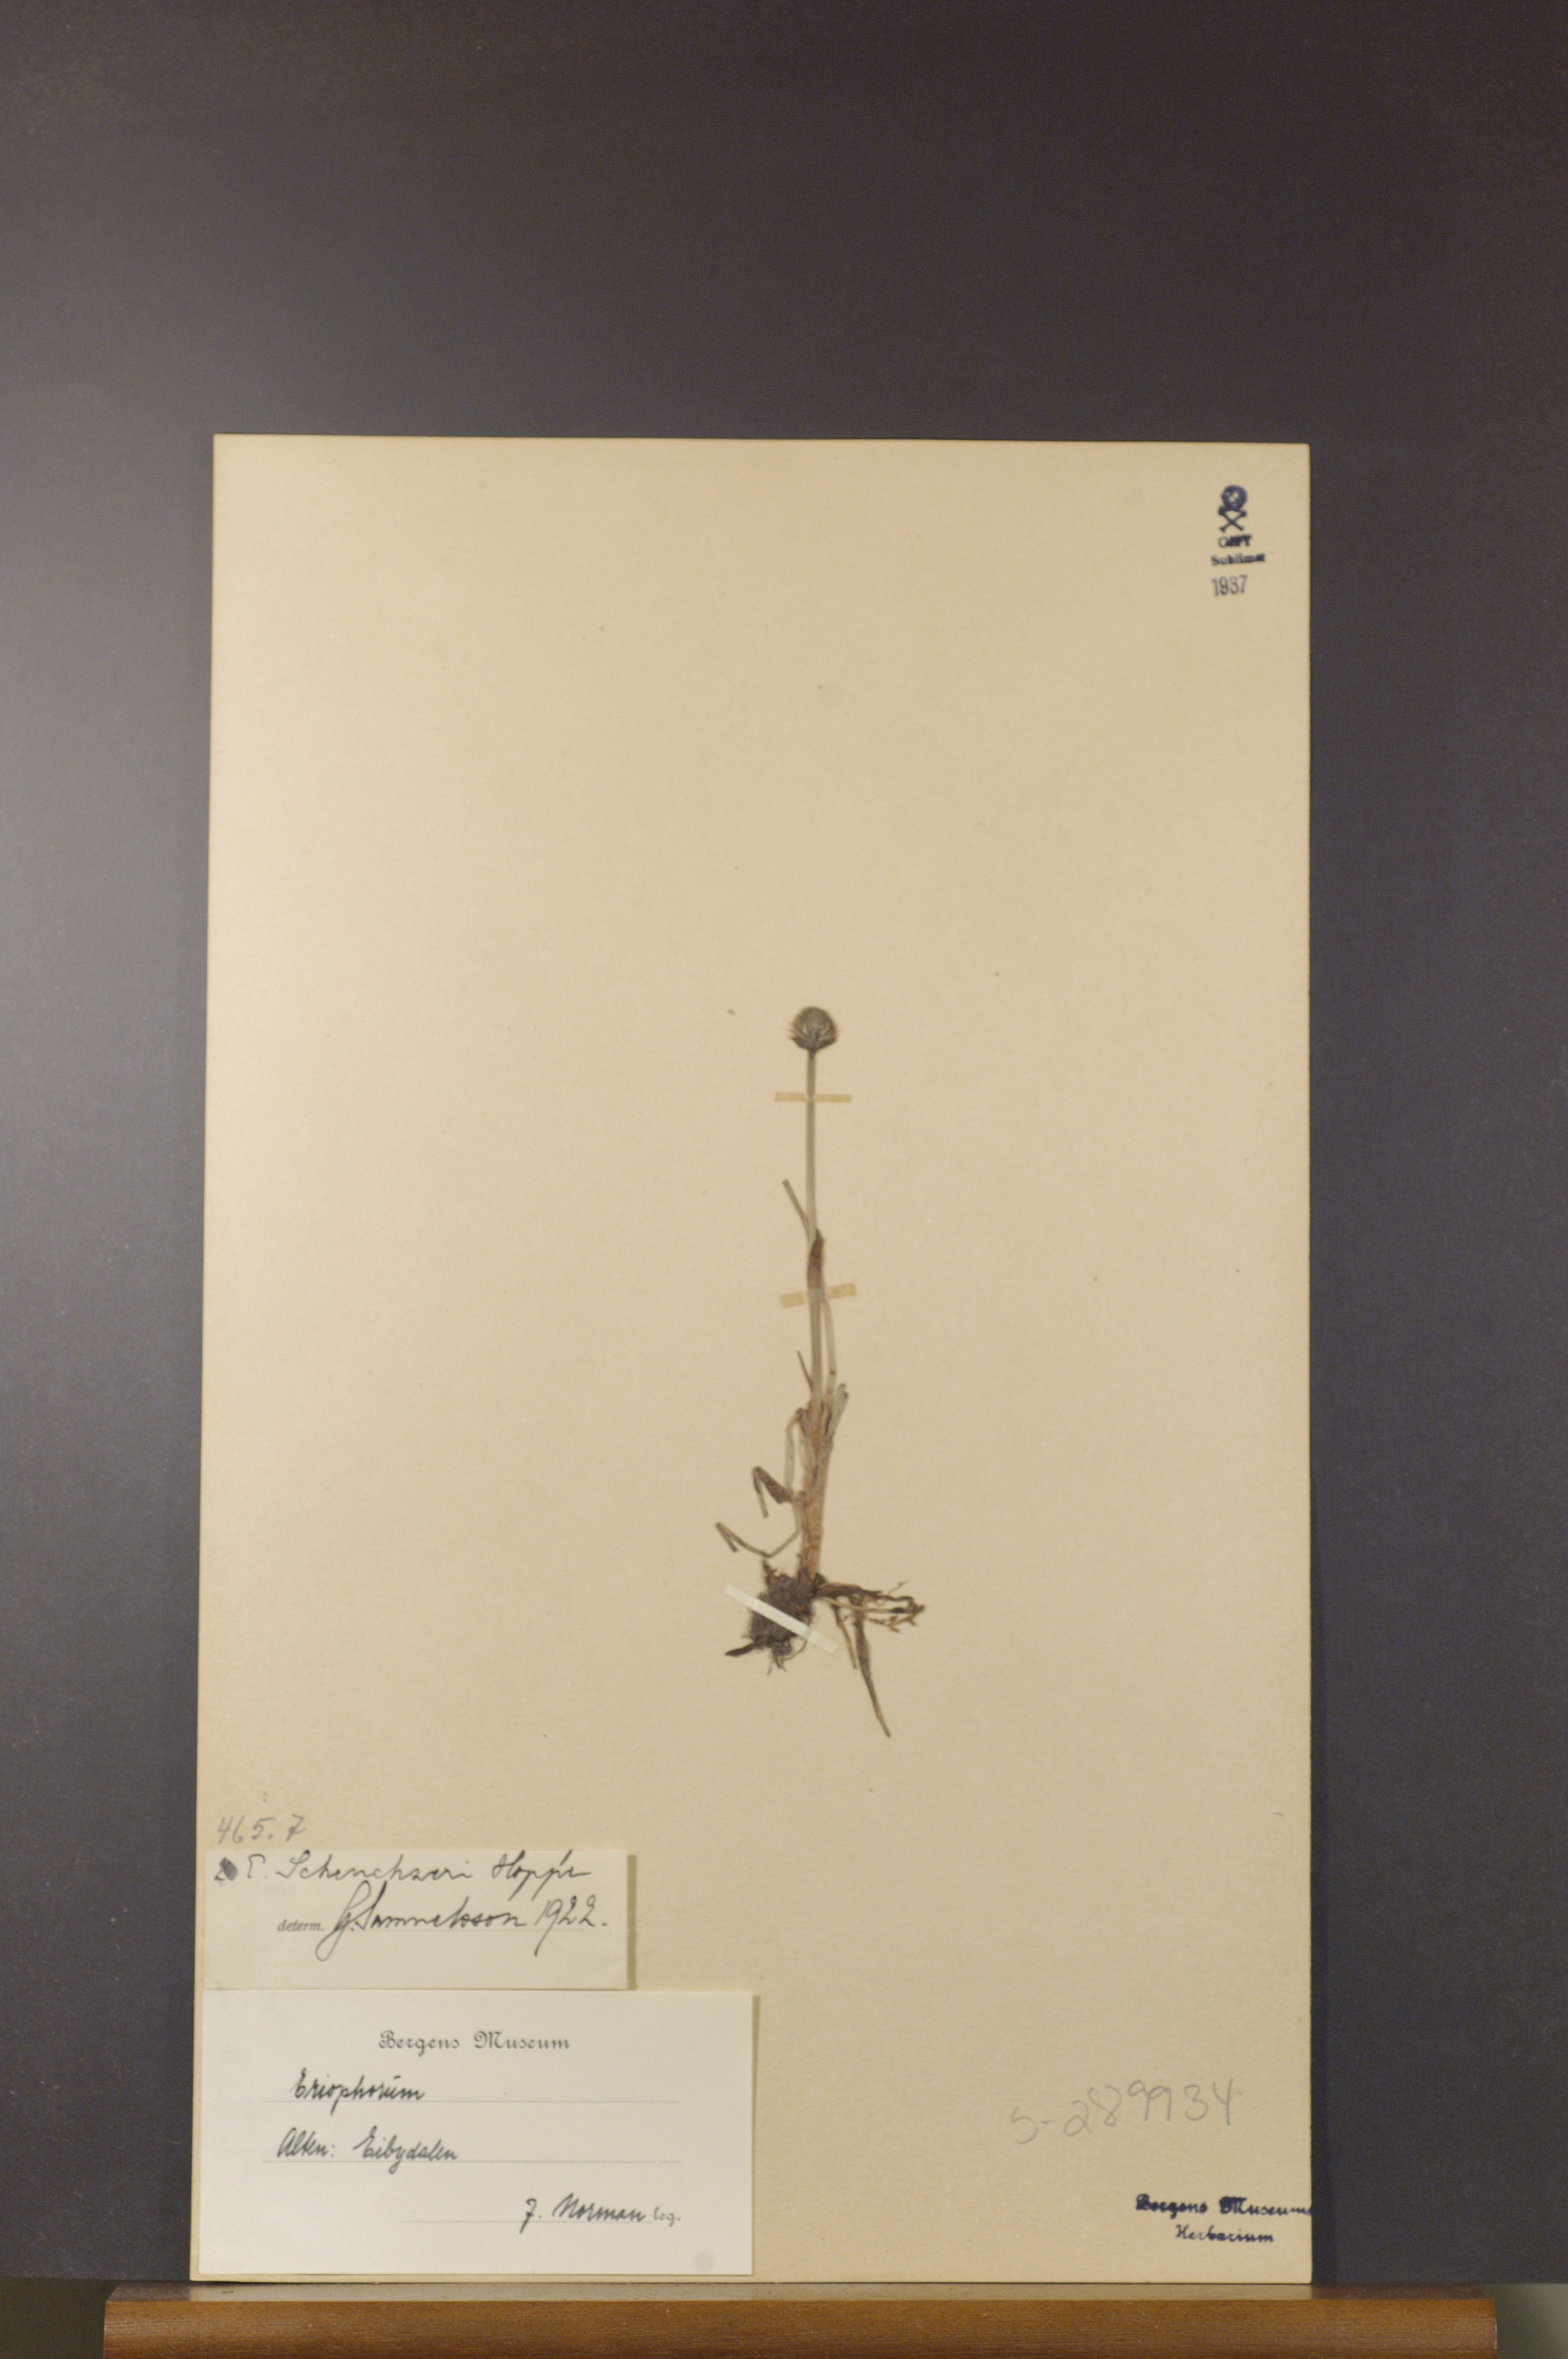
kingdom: Plantae
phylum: Tracheophyta
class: Liliopsida
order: Poales
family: Cyperaceae
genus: Eriophorum
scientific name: Eriophorum scheuchzeri
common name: Scheuchzer's cottongrass
